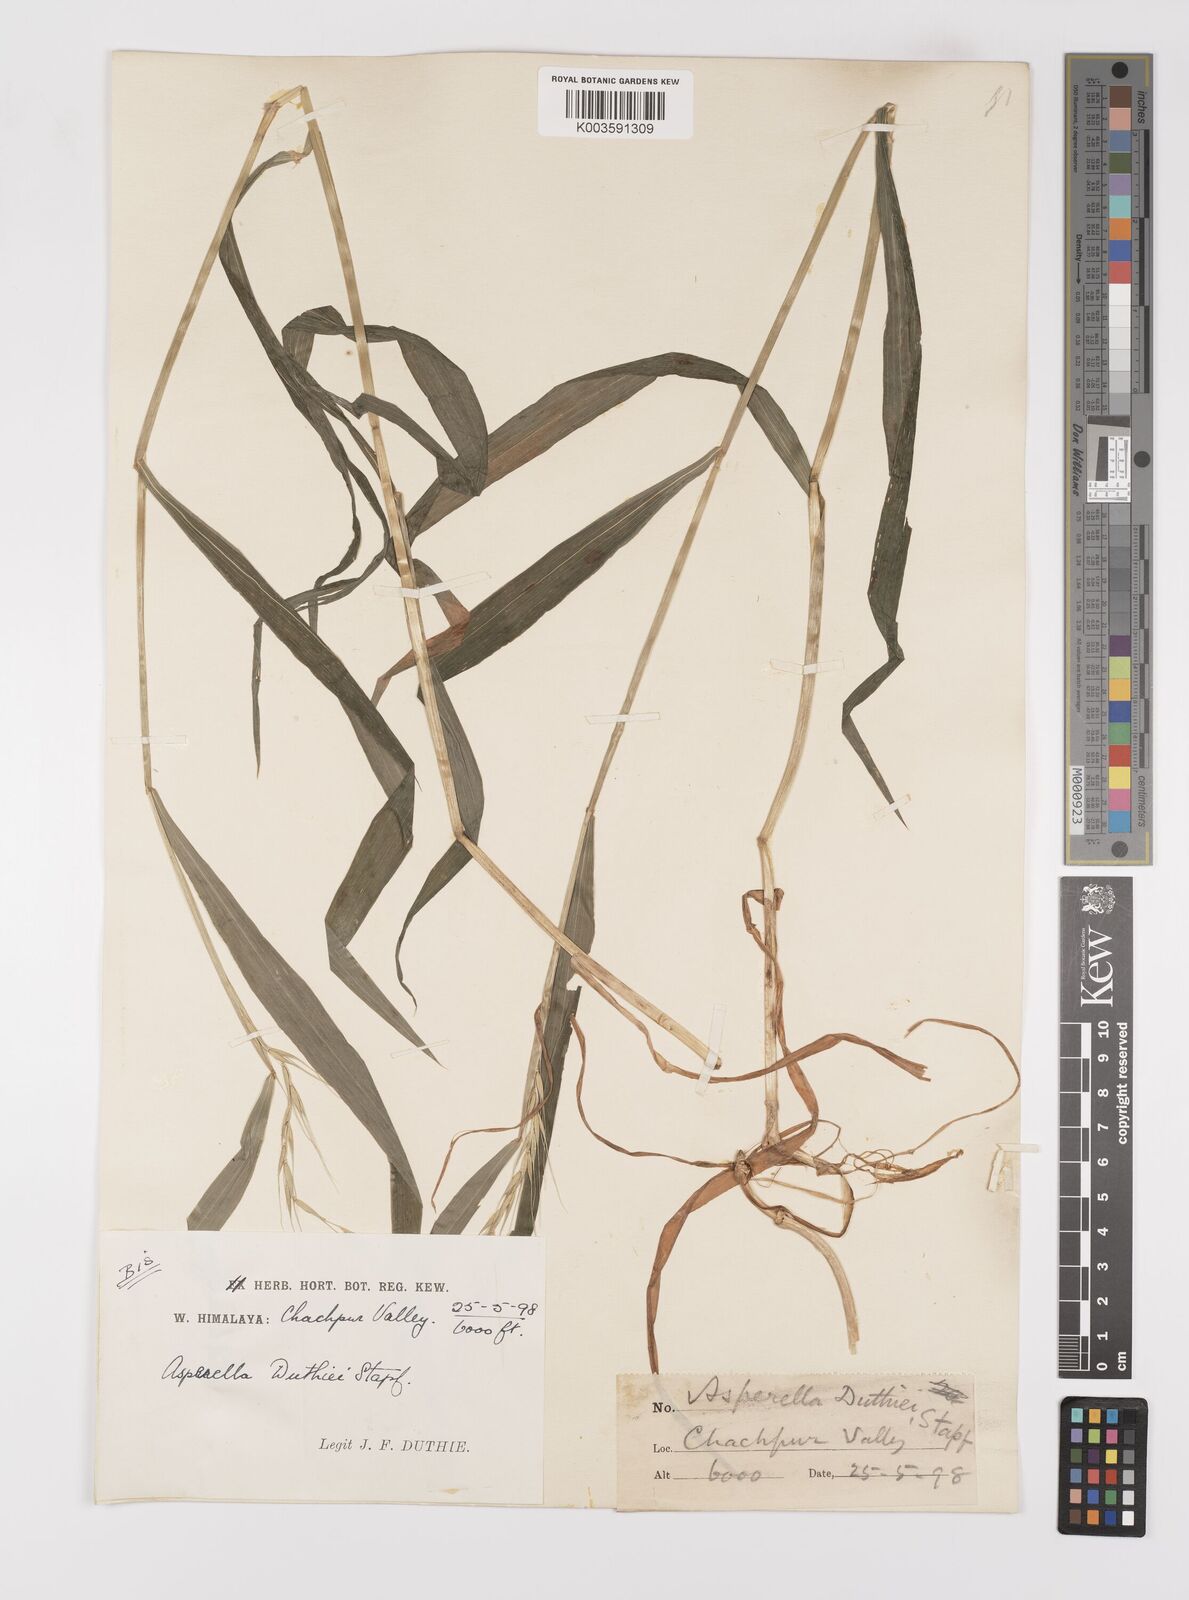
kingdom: Plantae
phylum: Tracheophyta
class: Liliopsida
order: Poales
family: Poaceae
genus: Leymus
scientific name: Leymus duthiei
